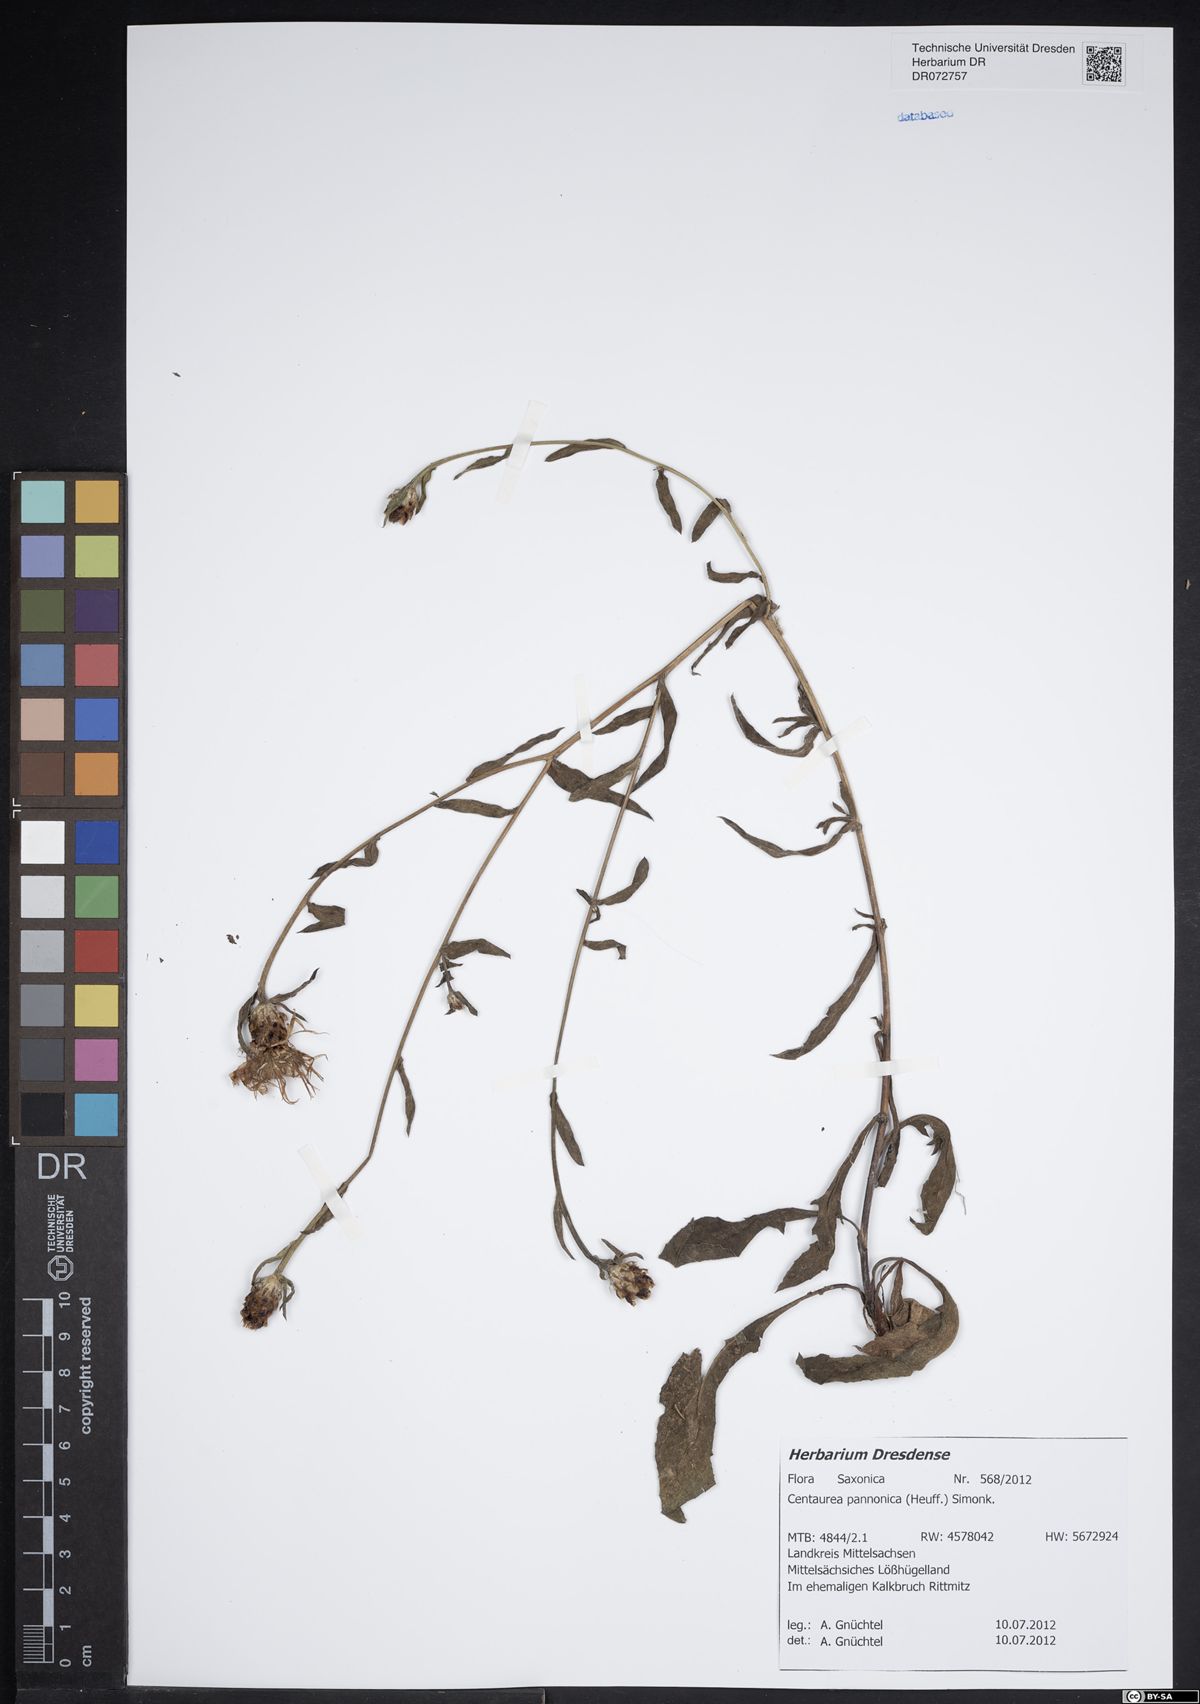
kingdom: Plantae
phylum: Tracheophyta
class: Magnoliopsida
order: Asterales
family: Asteraceae
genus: Centaurea
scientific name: Centaurea pannonica
